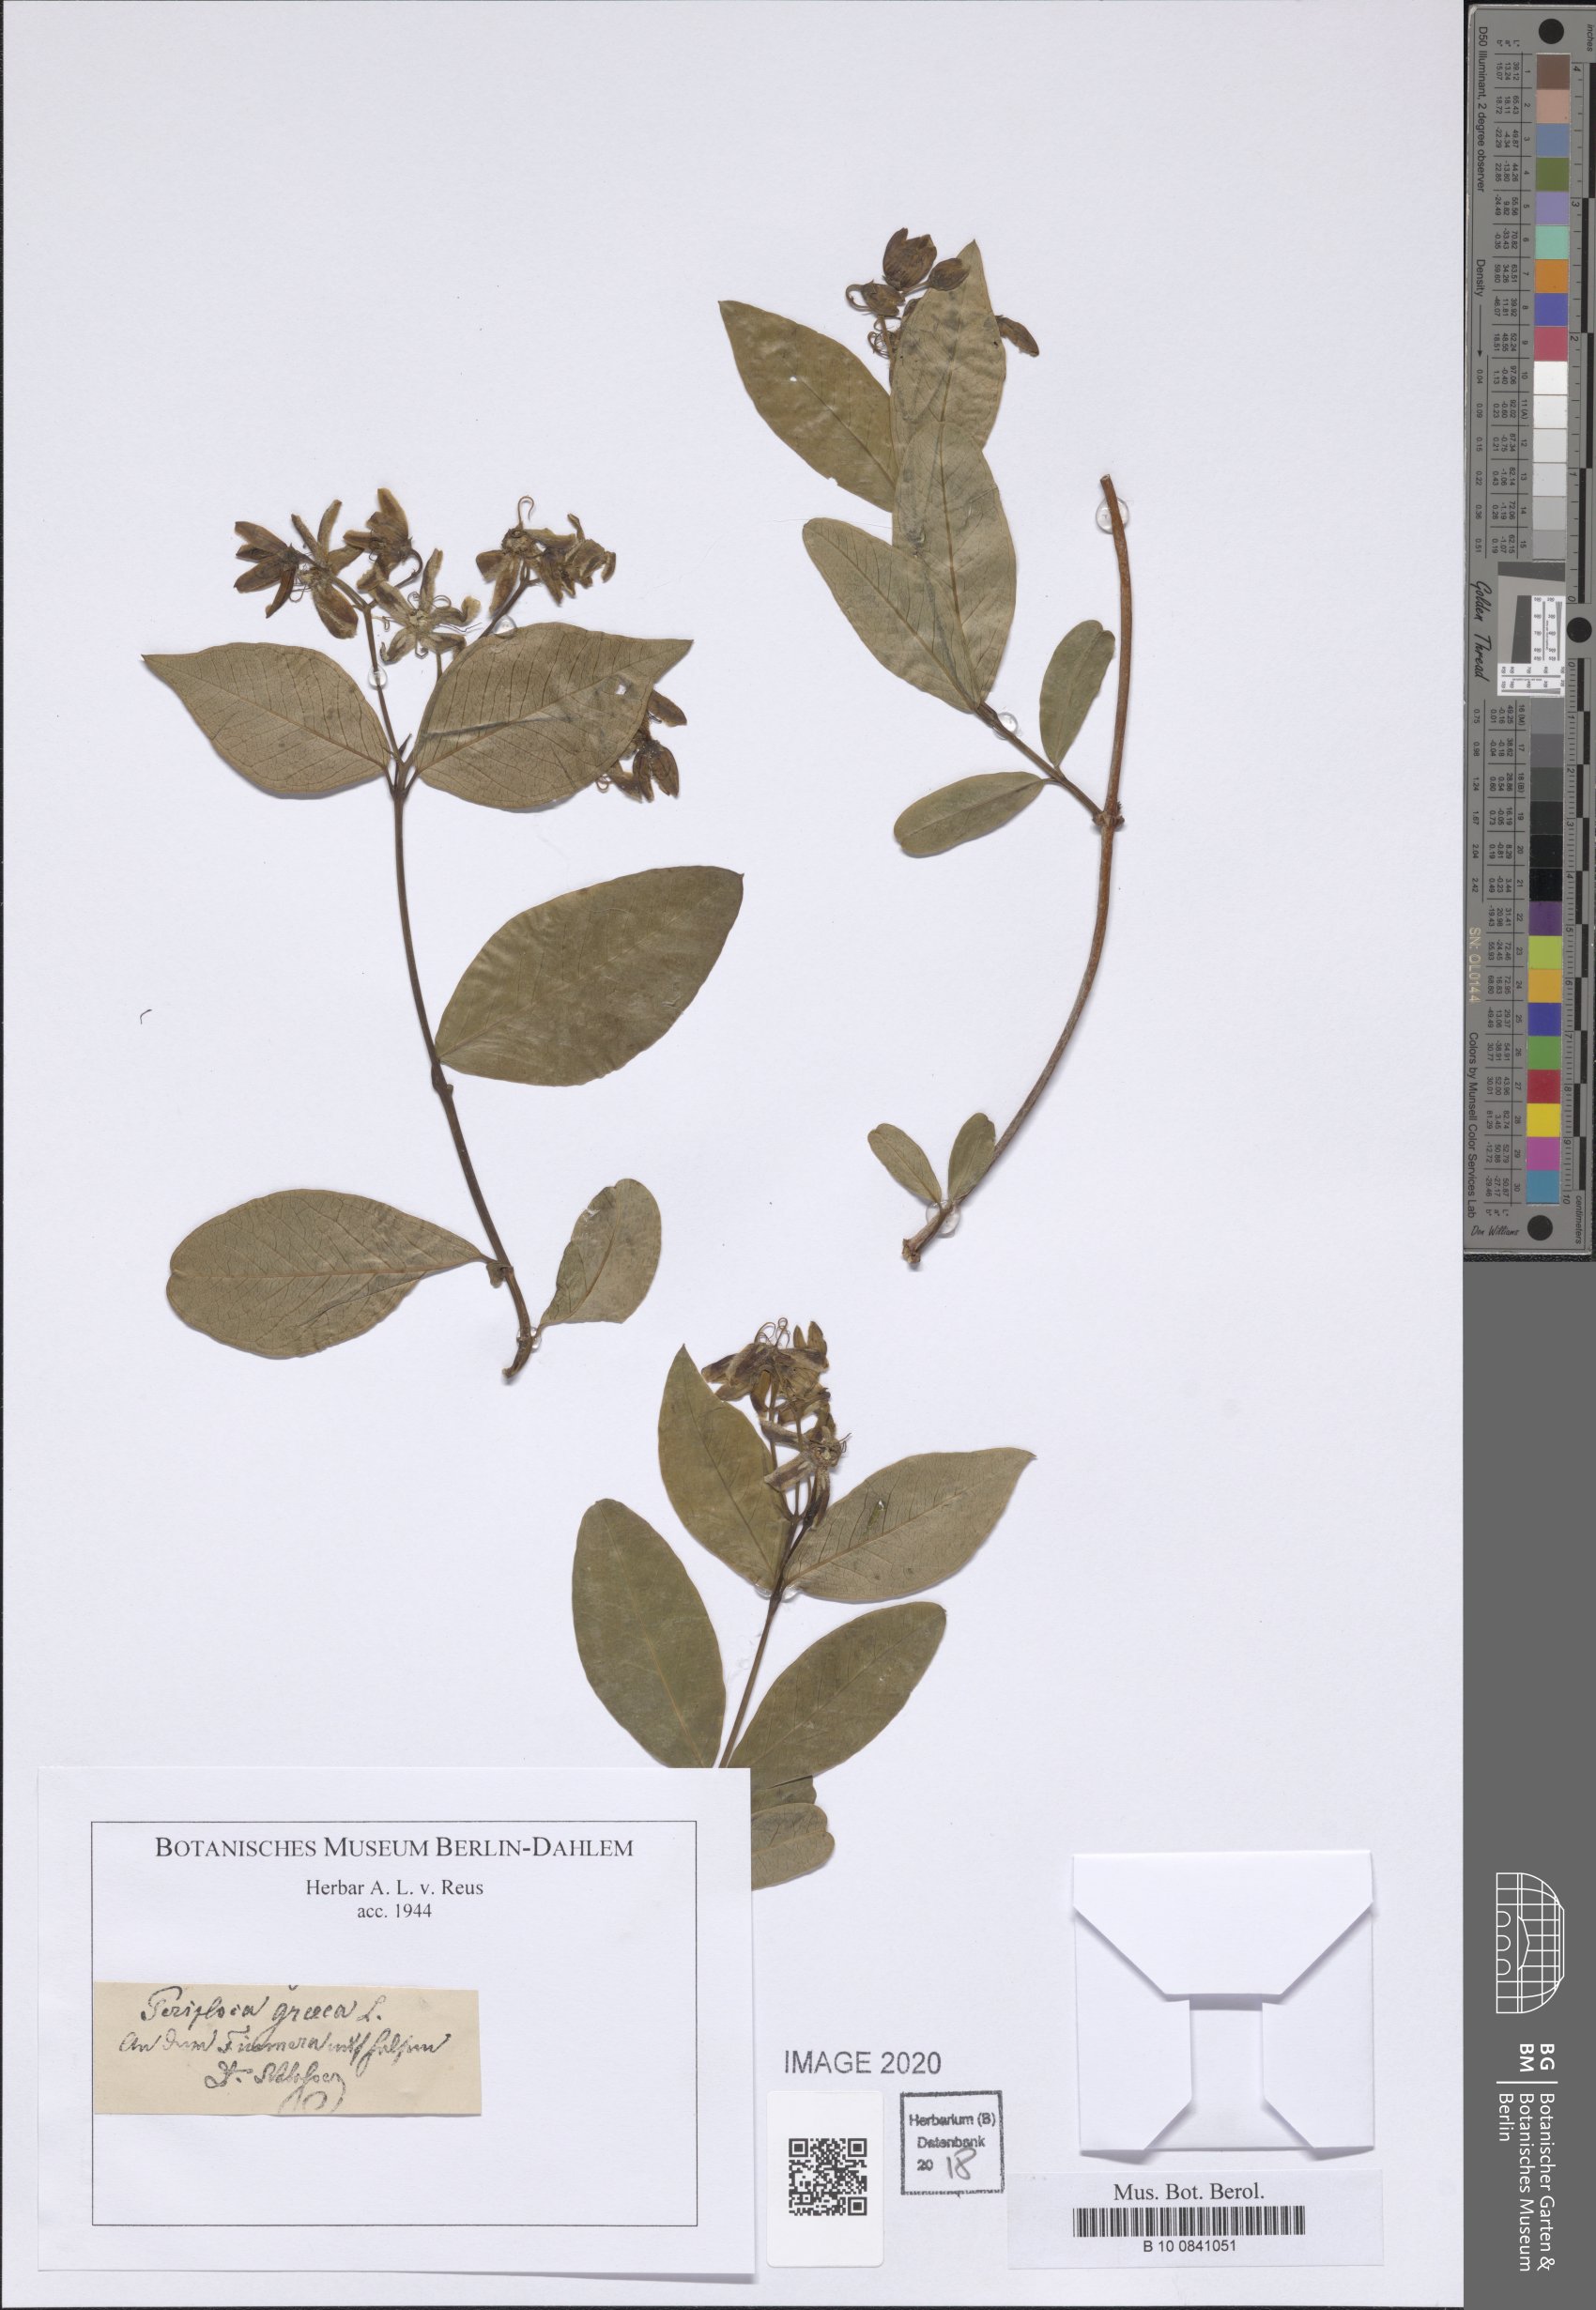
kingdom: Plantae
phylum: Tracheophyta
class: Magnoliopsida
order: Gentianales
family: Apocynaceae
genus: Periploca
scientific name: Periploca graeca
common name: Silkvine
